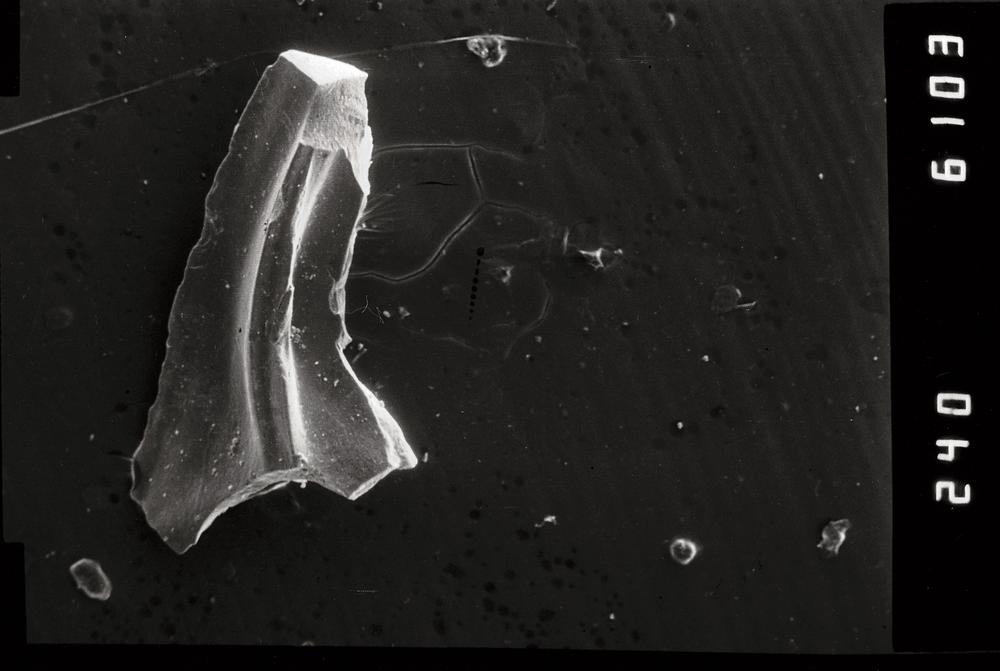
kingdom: Animalia
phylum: Chordata
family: Paracordylodontidae
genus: Oelandodus
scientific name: Oelandodus
